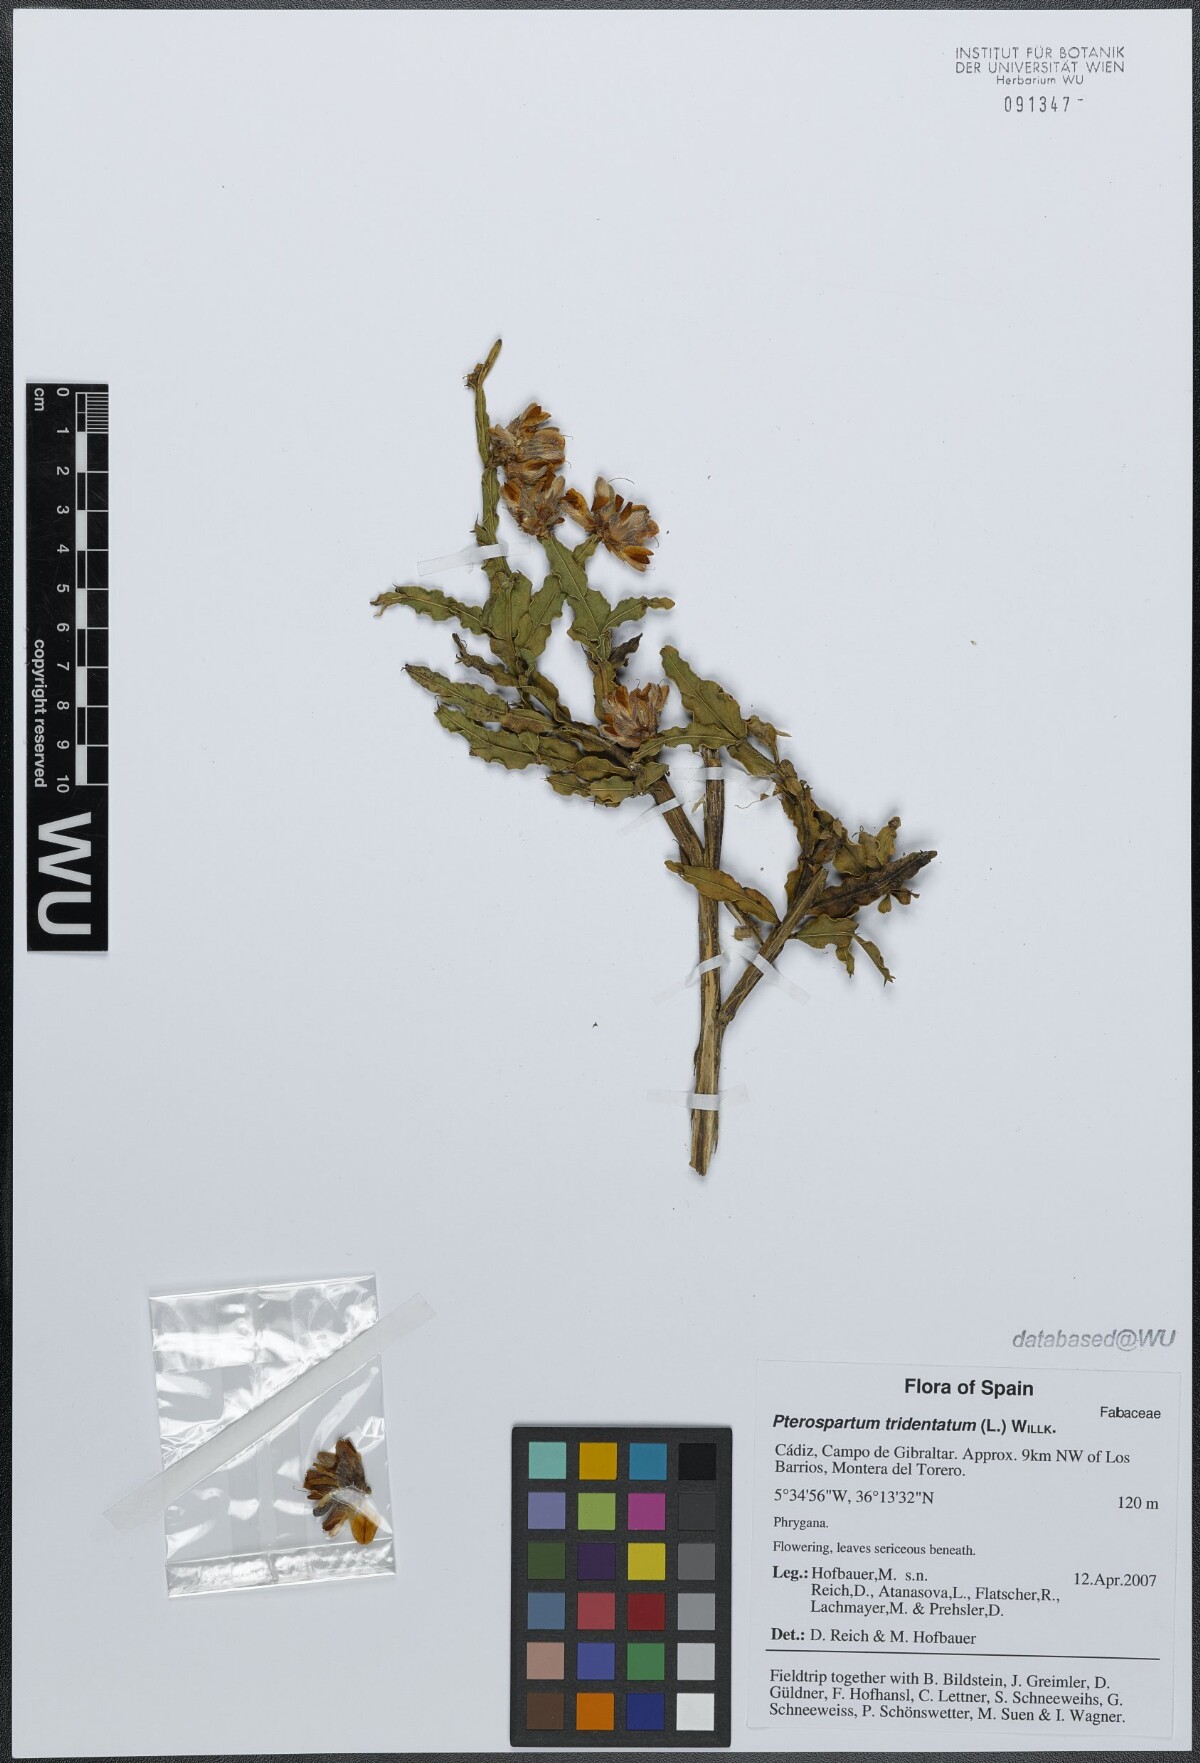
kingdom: Plantae
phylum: Tracheophyta
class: Magnoliopsida
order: Fabales
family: Fabaceae
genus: Genista
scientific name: Genista tridentata
